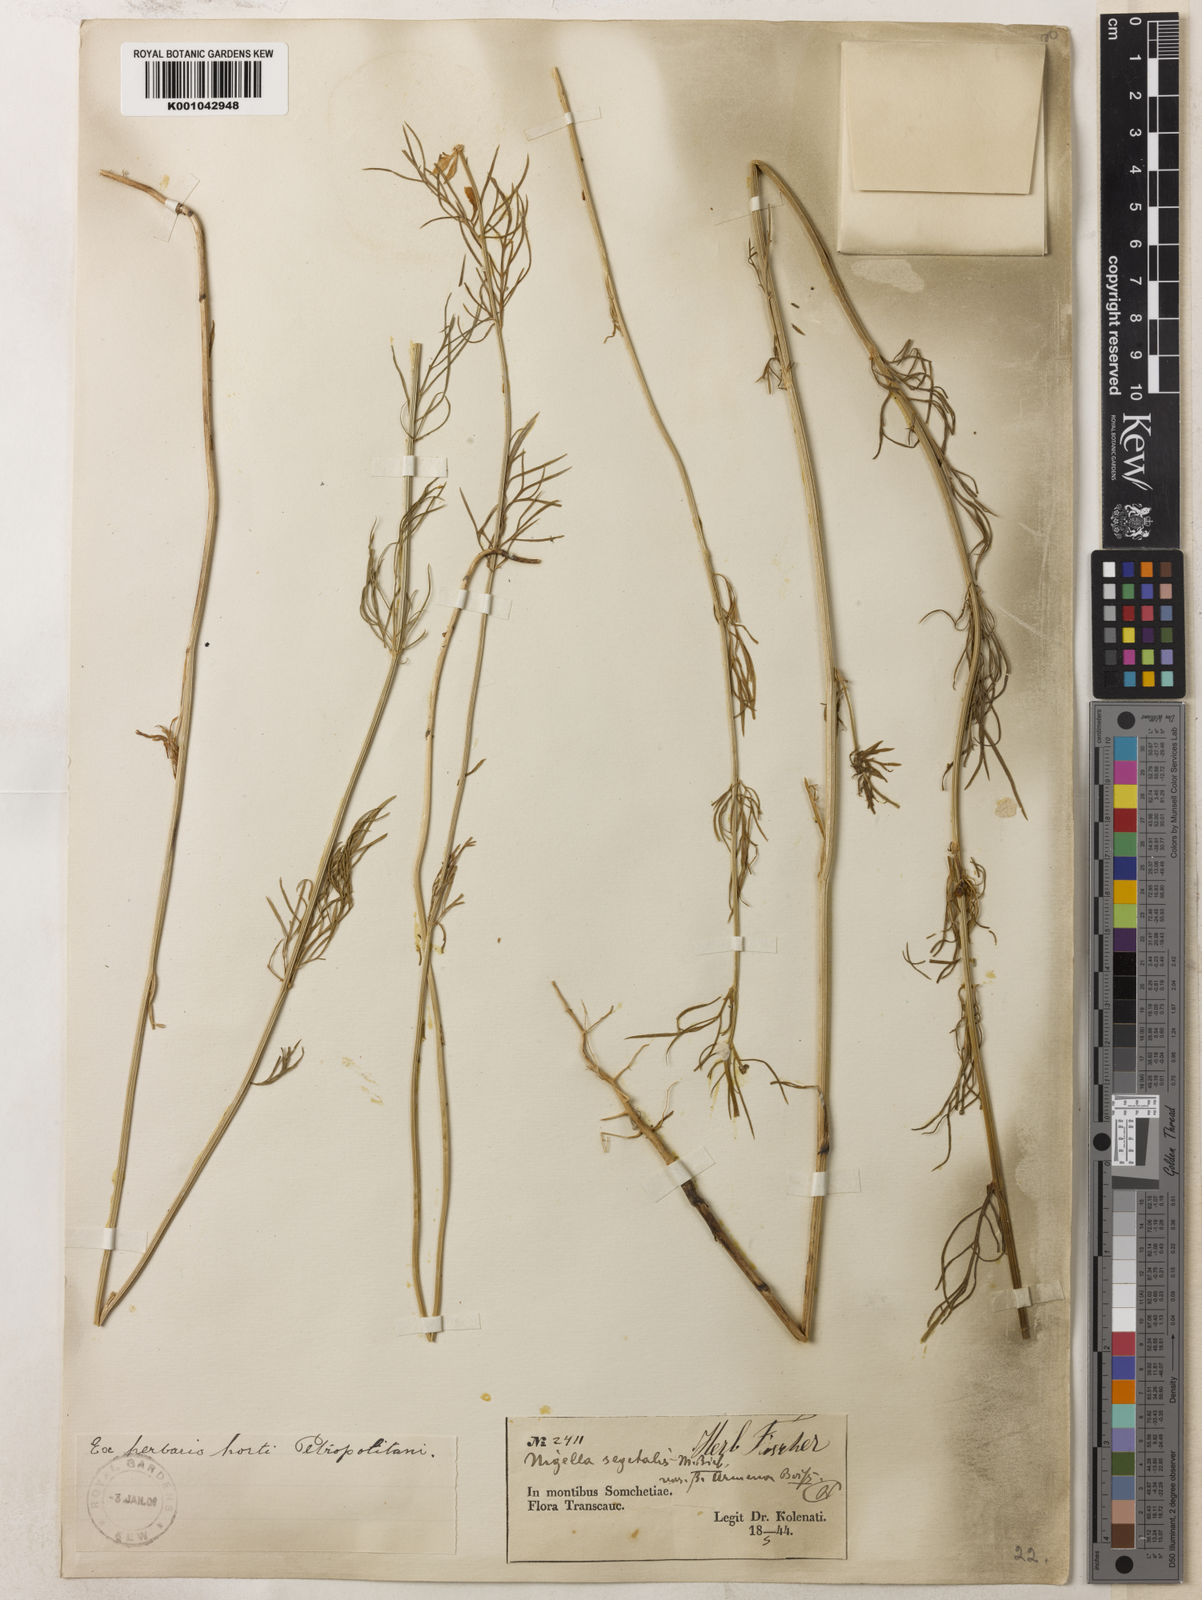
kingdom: Plantae
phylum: Tracheophyta
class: Magnoliopsida
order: Ranunculales
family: Ranunculaceae
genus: Nigella
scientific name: Nigella segetalis
